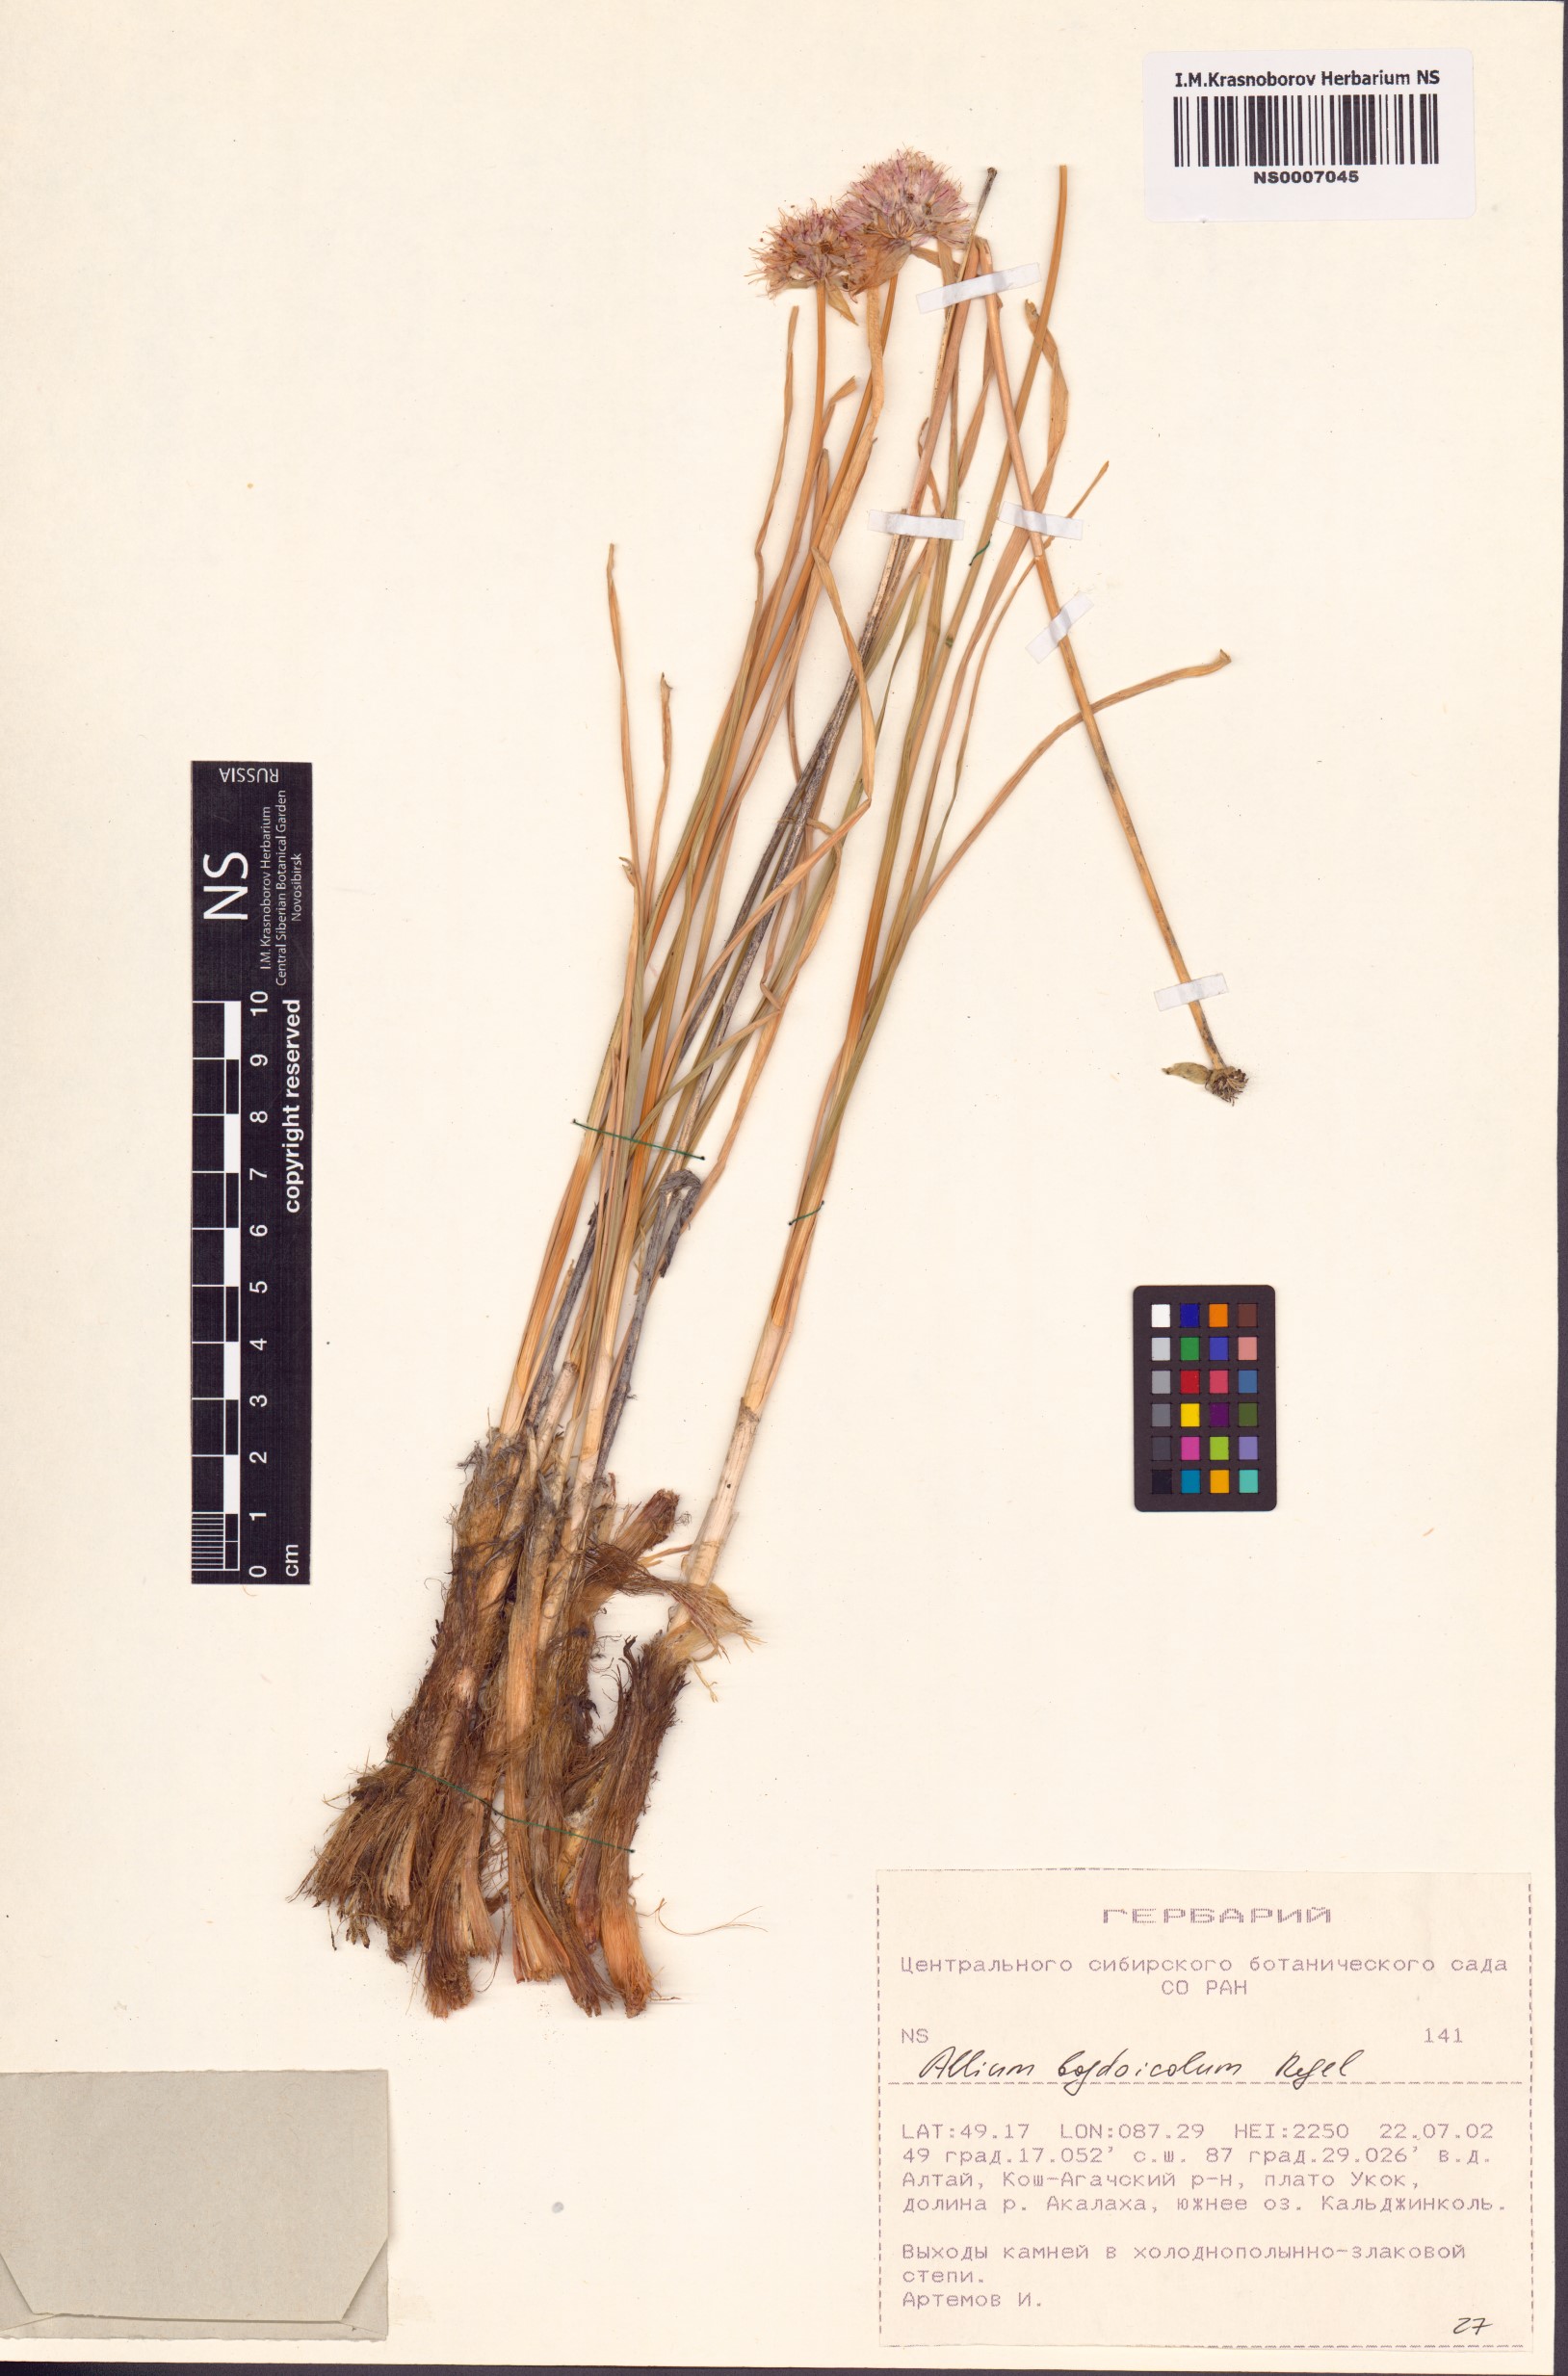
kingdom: Plantae
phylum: Tracheophyta
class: Liliopsida
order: Asparagales
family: Amaryllidaceae
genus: Allium
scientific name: Allium schrenkii
